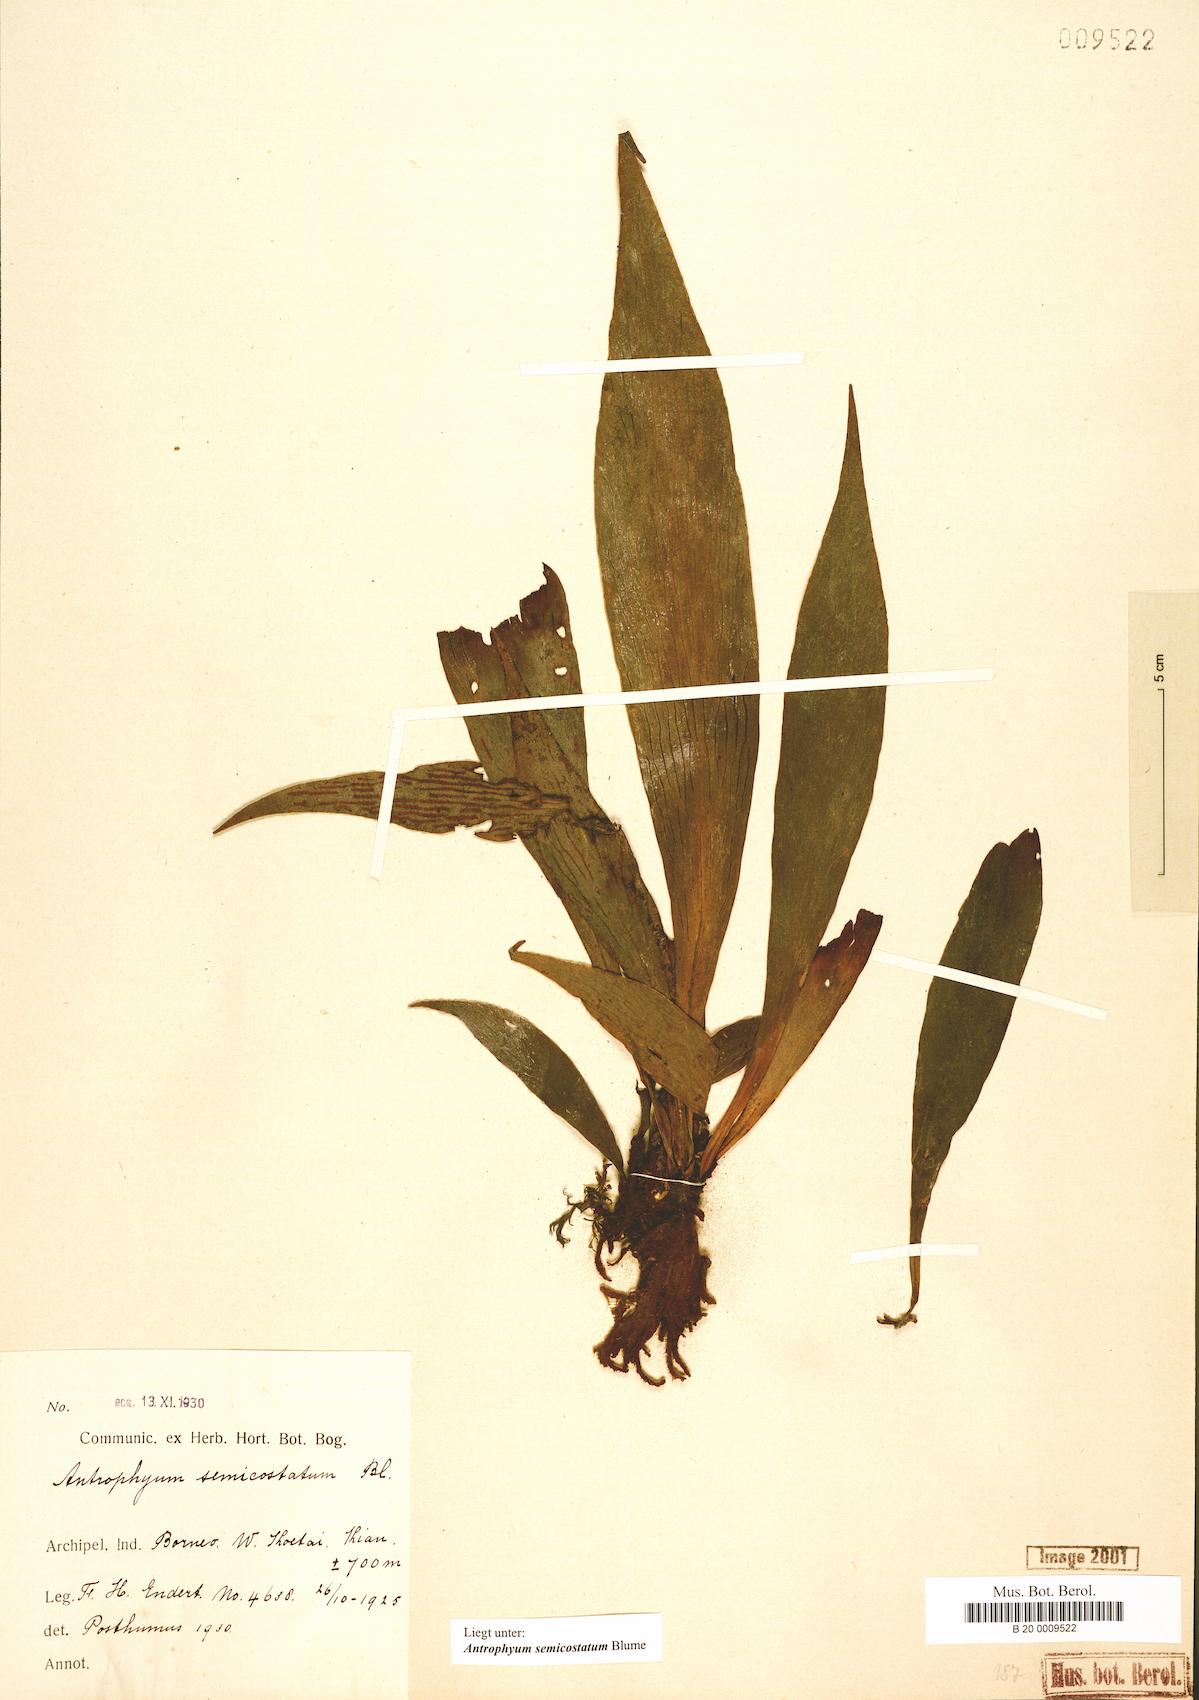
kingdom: Plantae
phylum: Tracheophyta
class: Polypodiopsida
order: Polypodiales
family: Pteridaceae
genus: Antrophyum
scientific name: Antrophyum semicostatum
